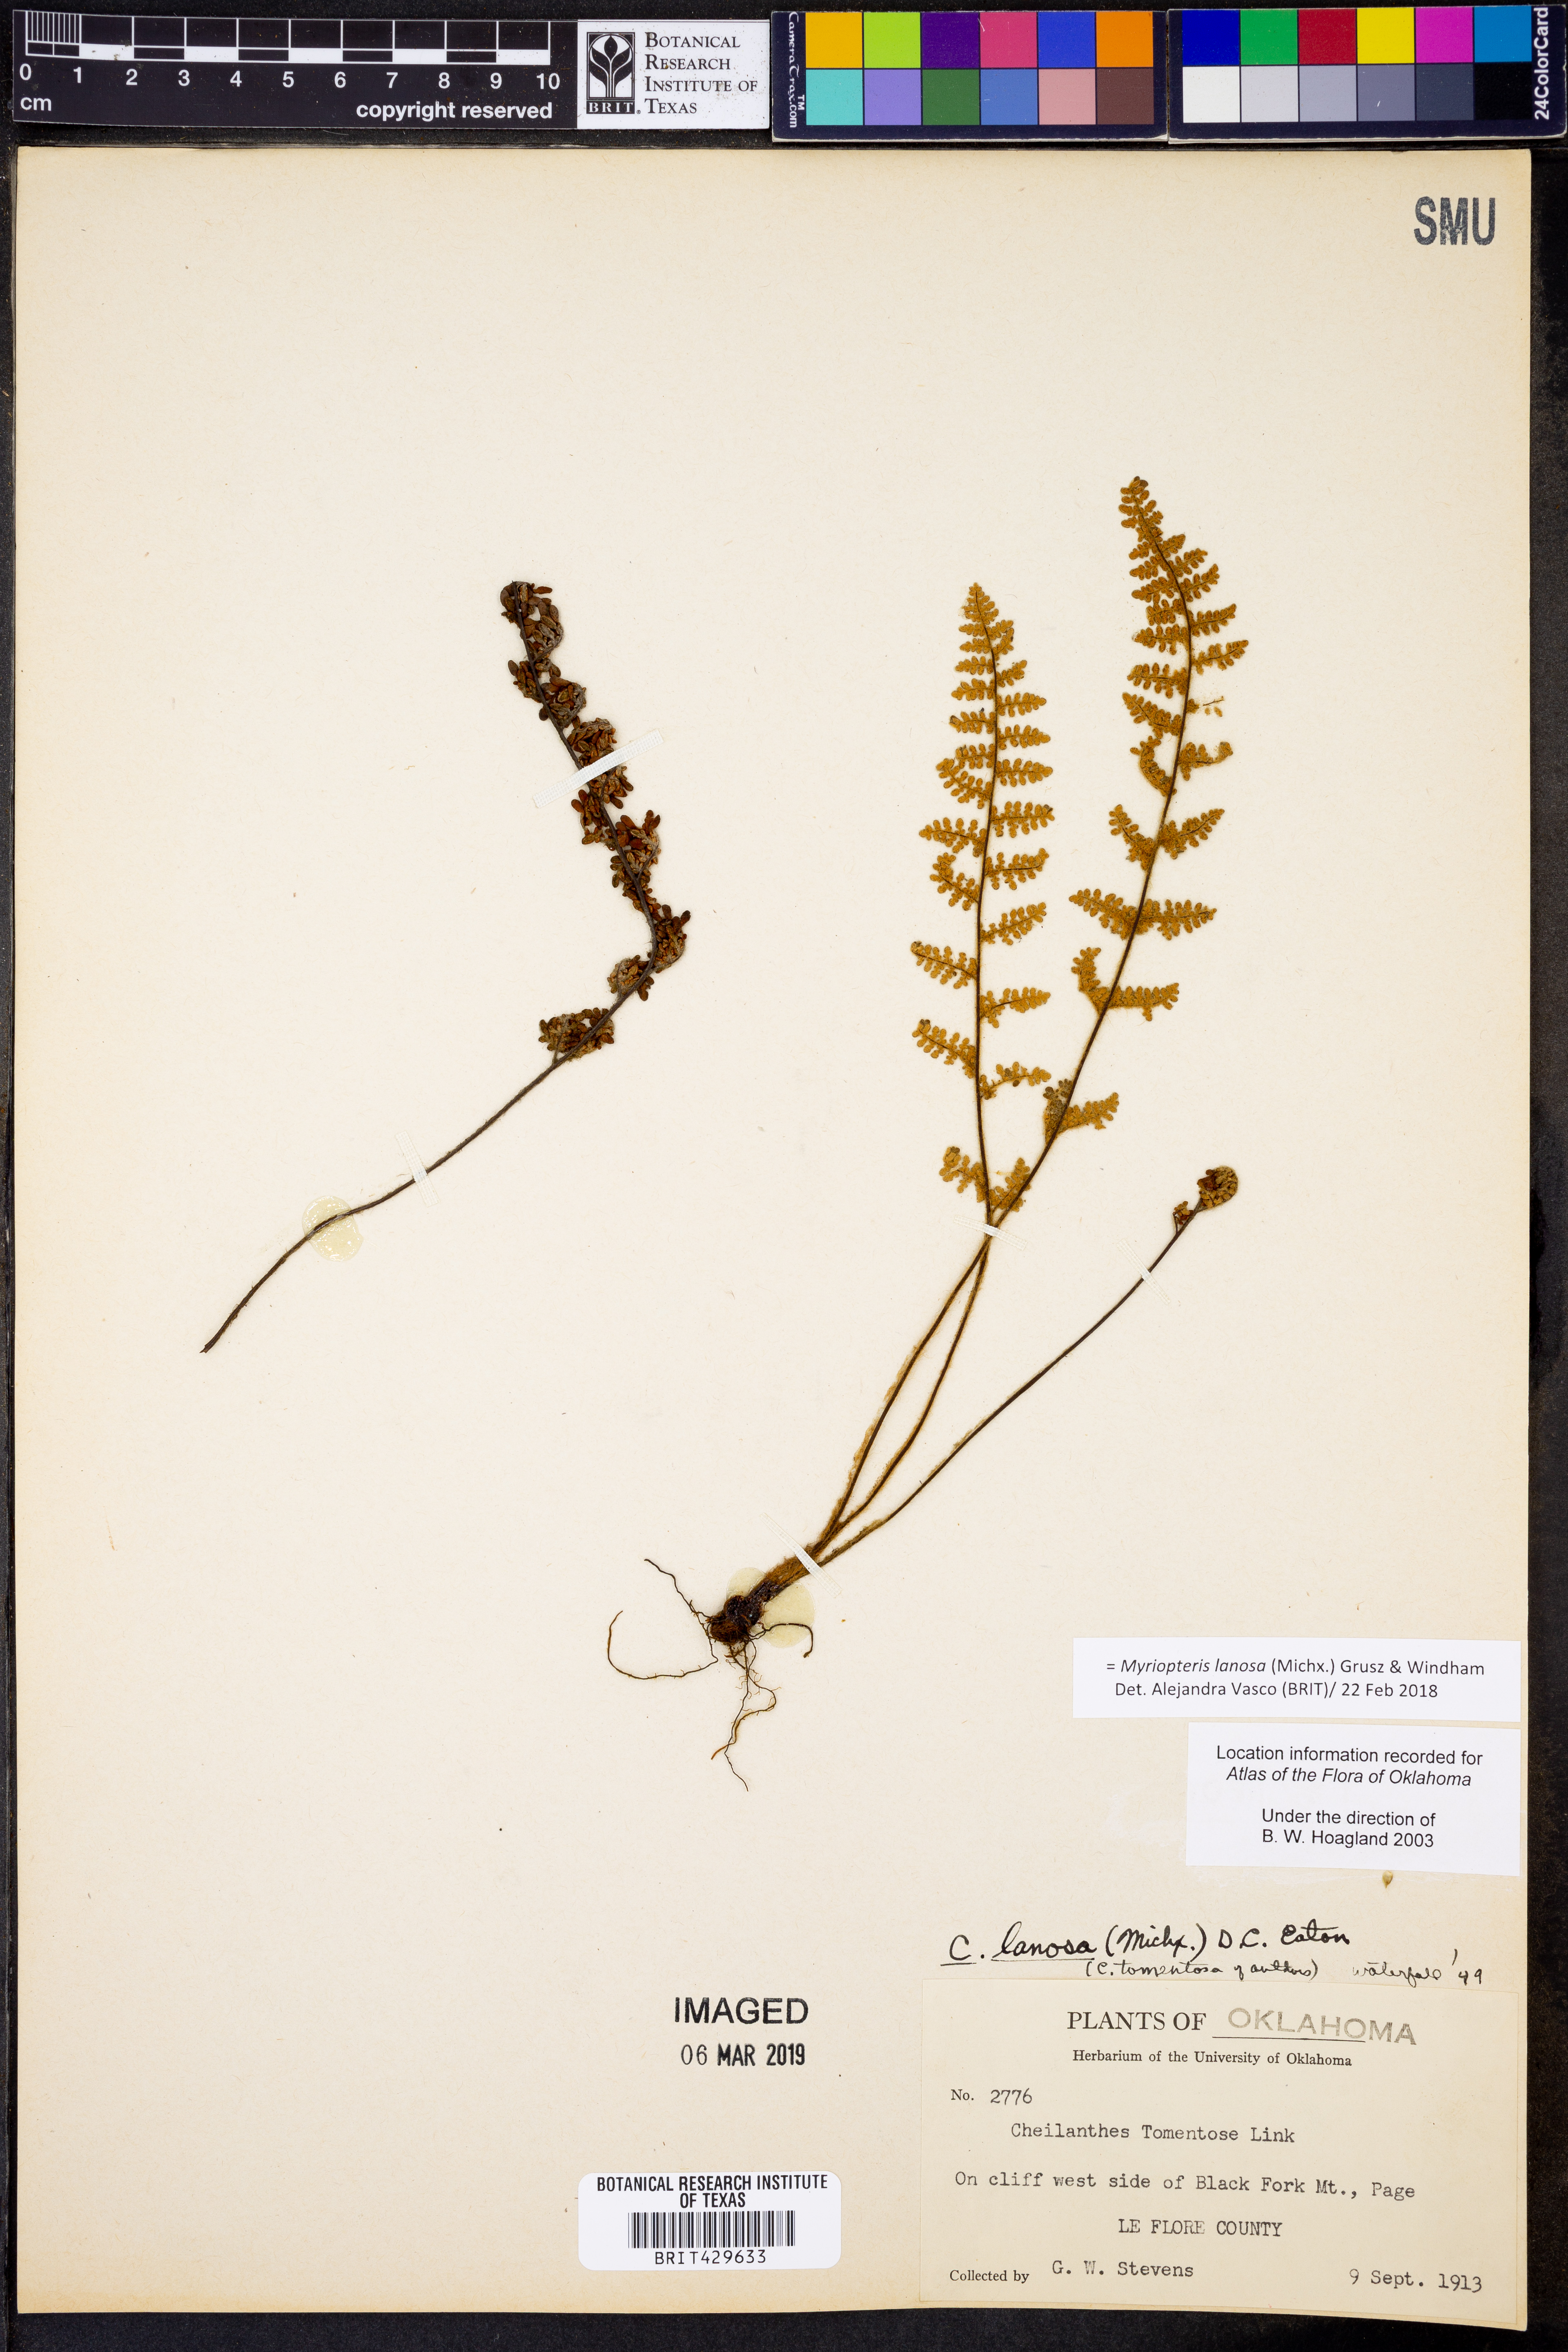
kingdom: Plantae
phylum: Tracheophyta
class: Polypodiopsida
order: Polypodiales
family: Pteridaceae
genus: Myriopteris
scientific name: Myriopteris lanosa
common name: Hairy lip fern
